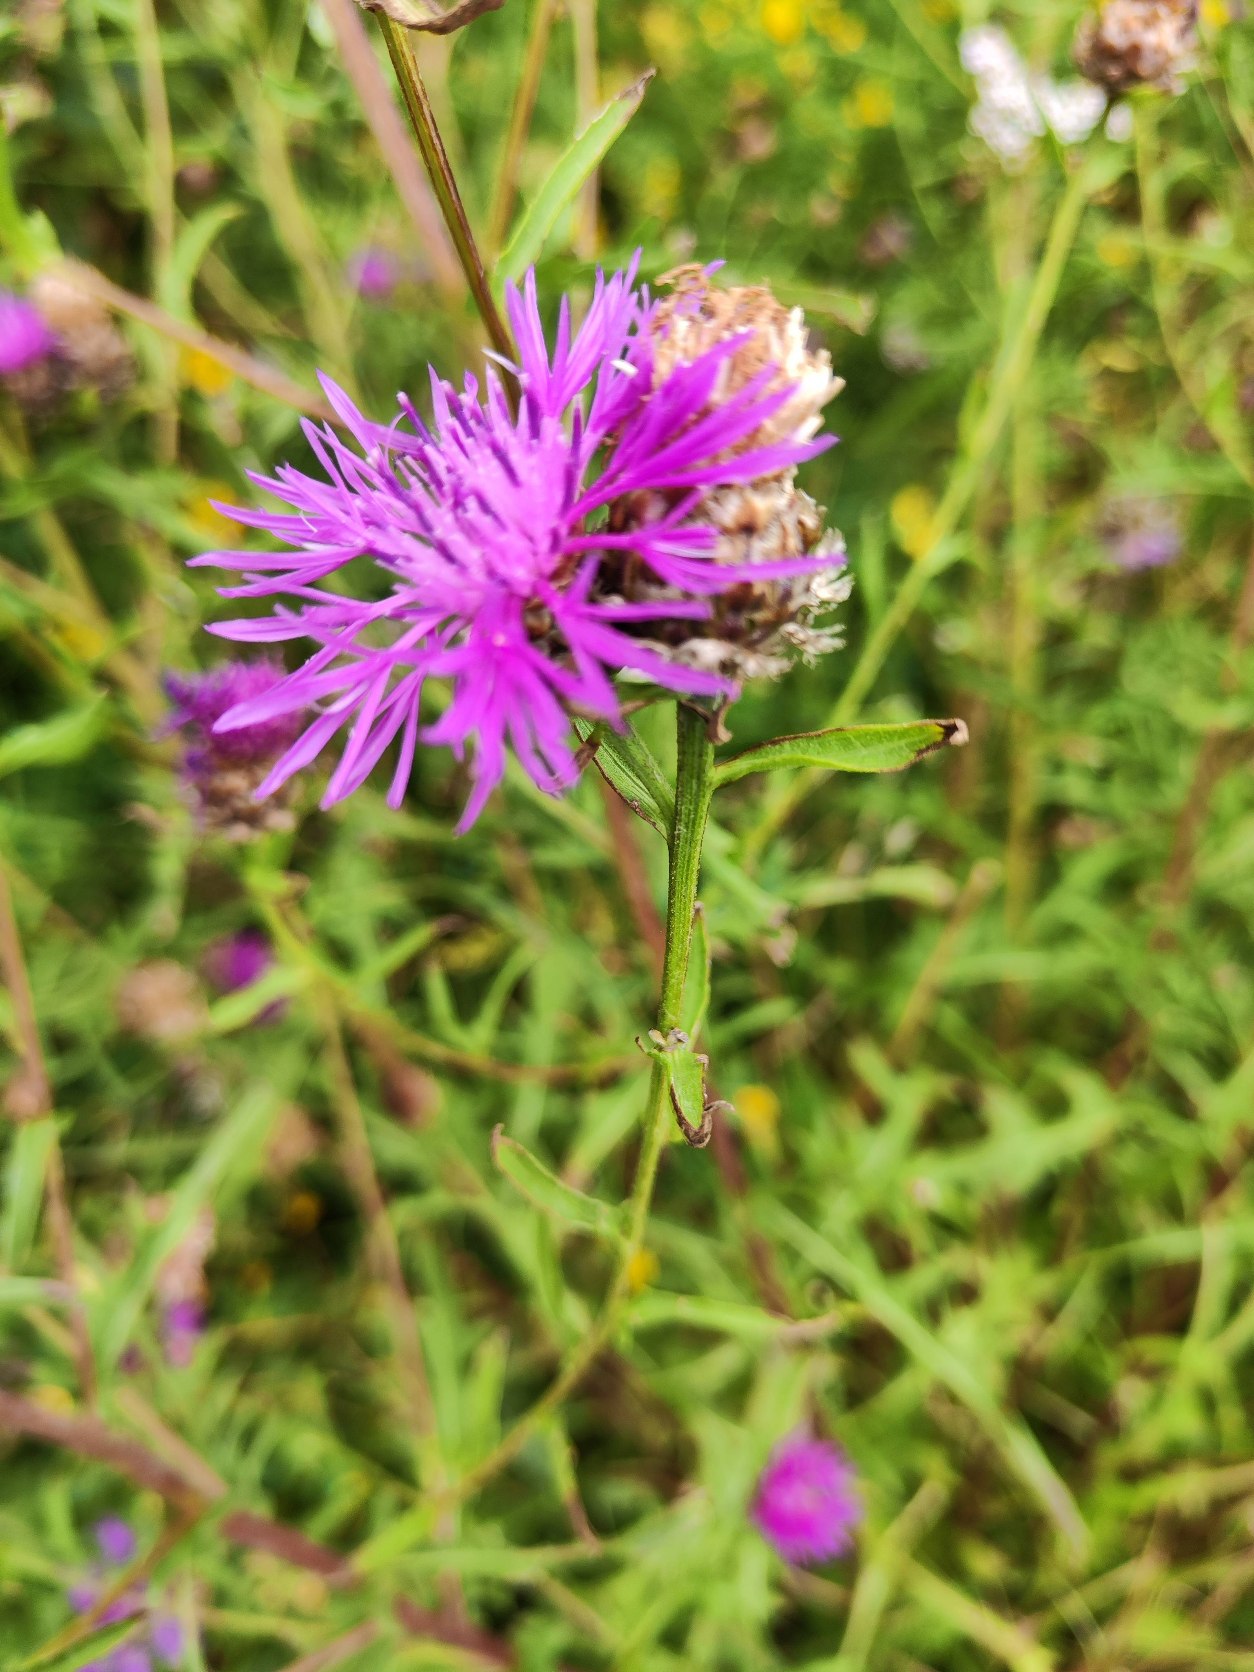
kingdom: Plantae
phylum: Tracheophyta
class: Magnoliopsida
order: Asterales
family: Asteraceae
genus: Centaurea
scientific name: Centaurea jacea
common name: Almindelig knopurt
